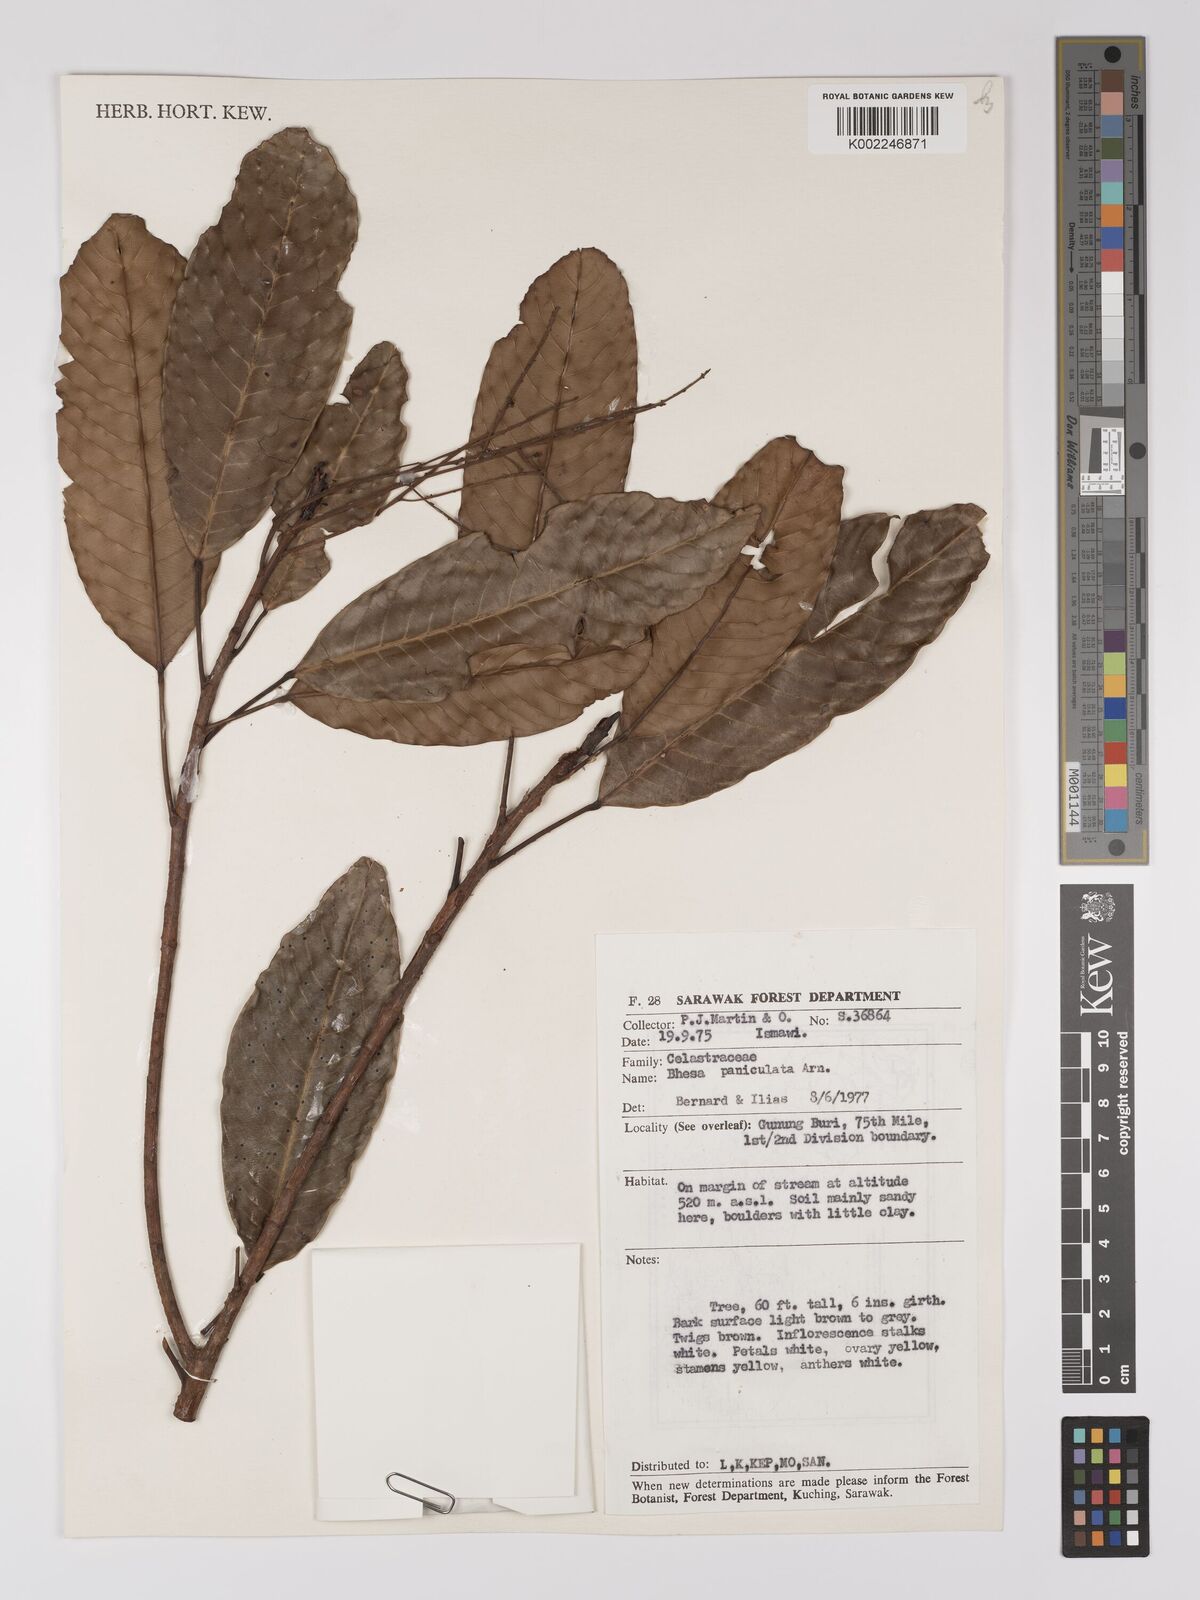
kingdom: Plantae
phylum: Tracheophyta
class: Magnoliopsida
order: Malpighiales
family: Centroplacaceae
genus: Bhesa
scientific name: Bhesa paniculata
